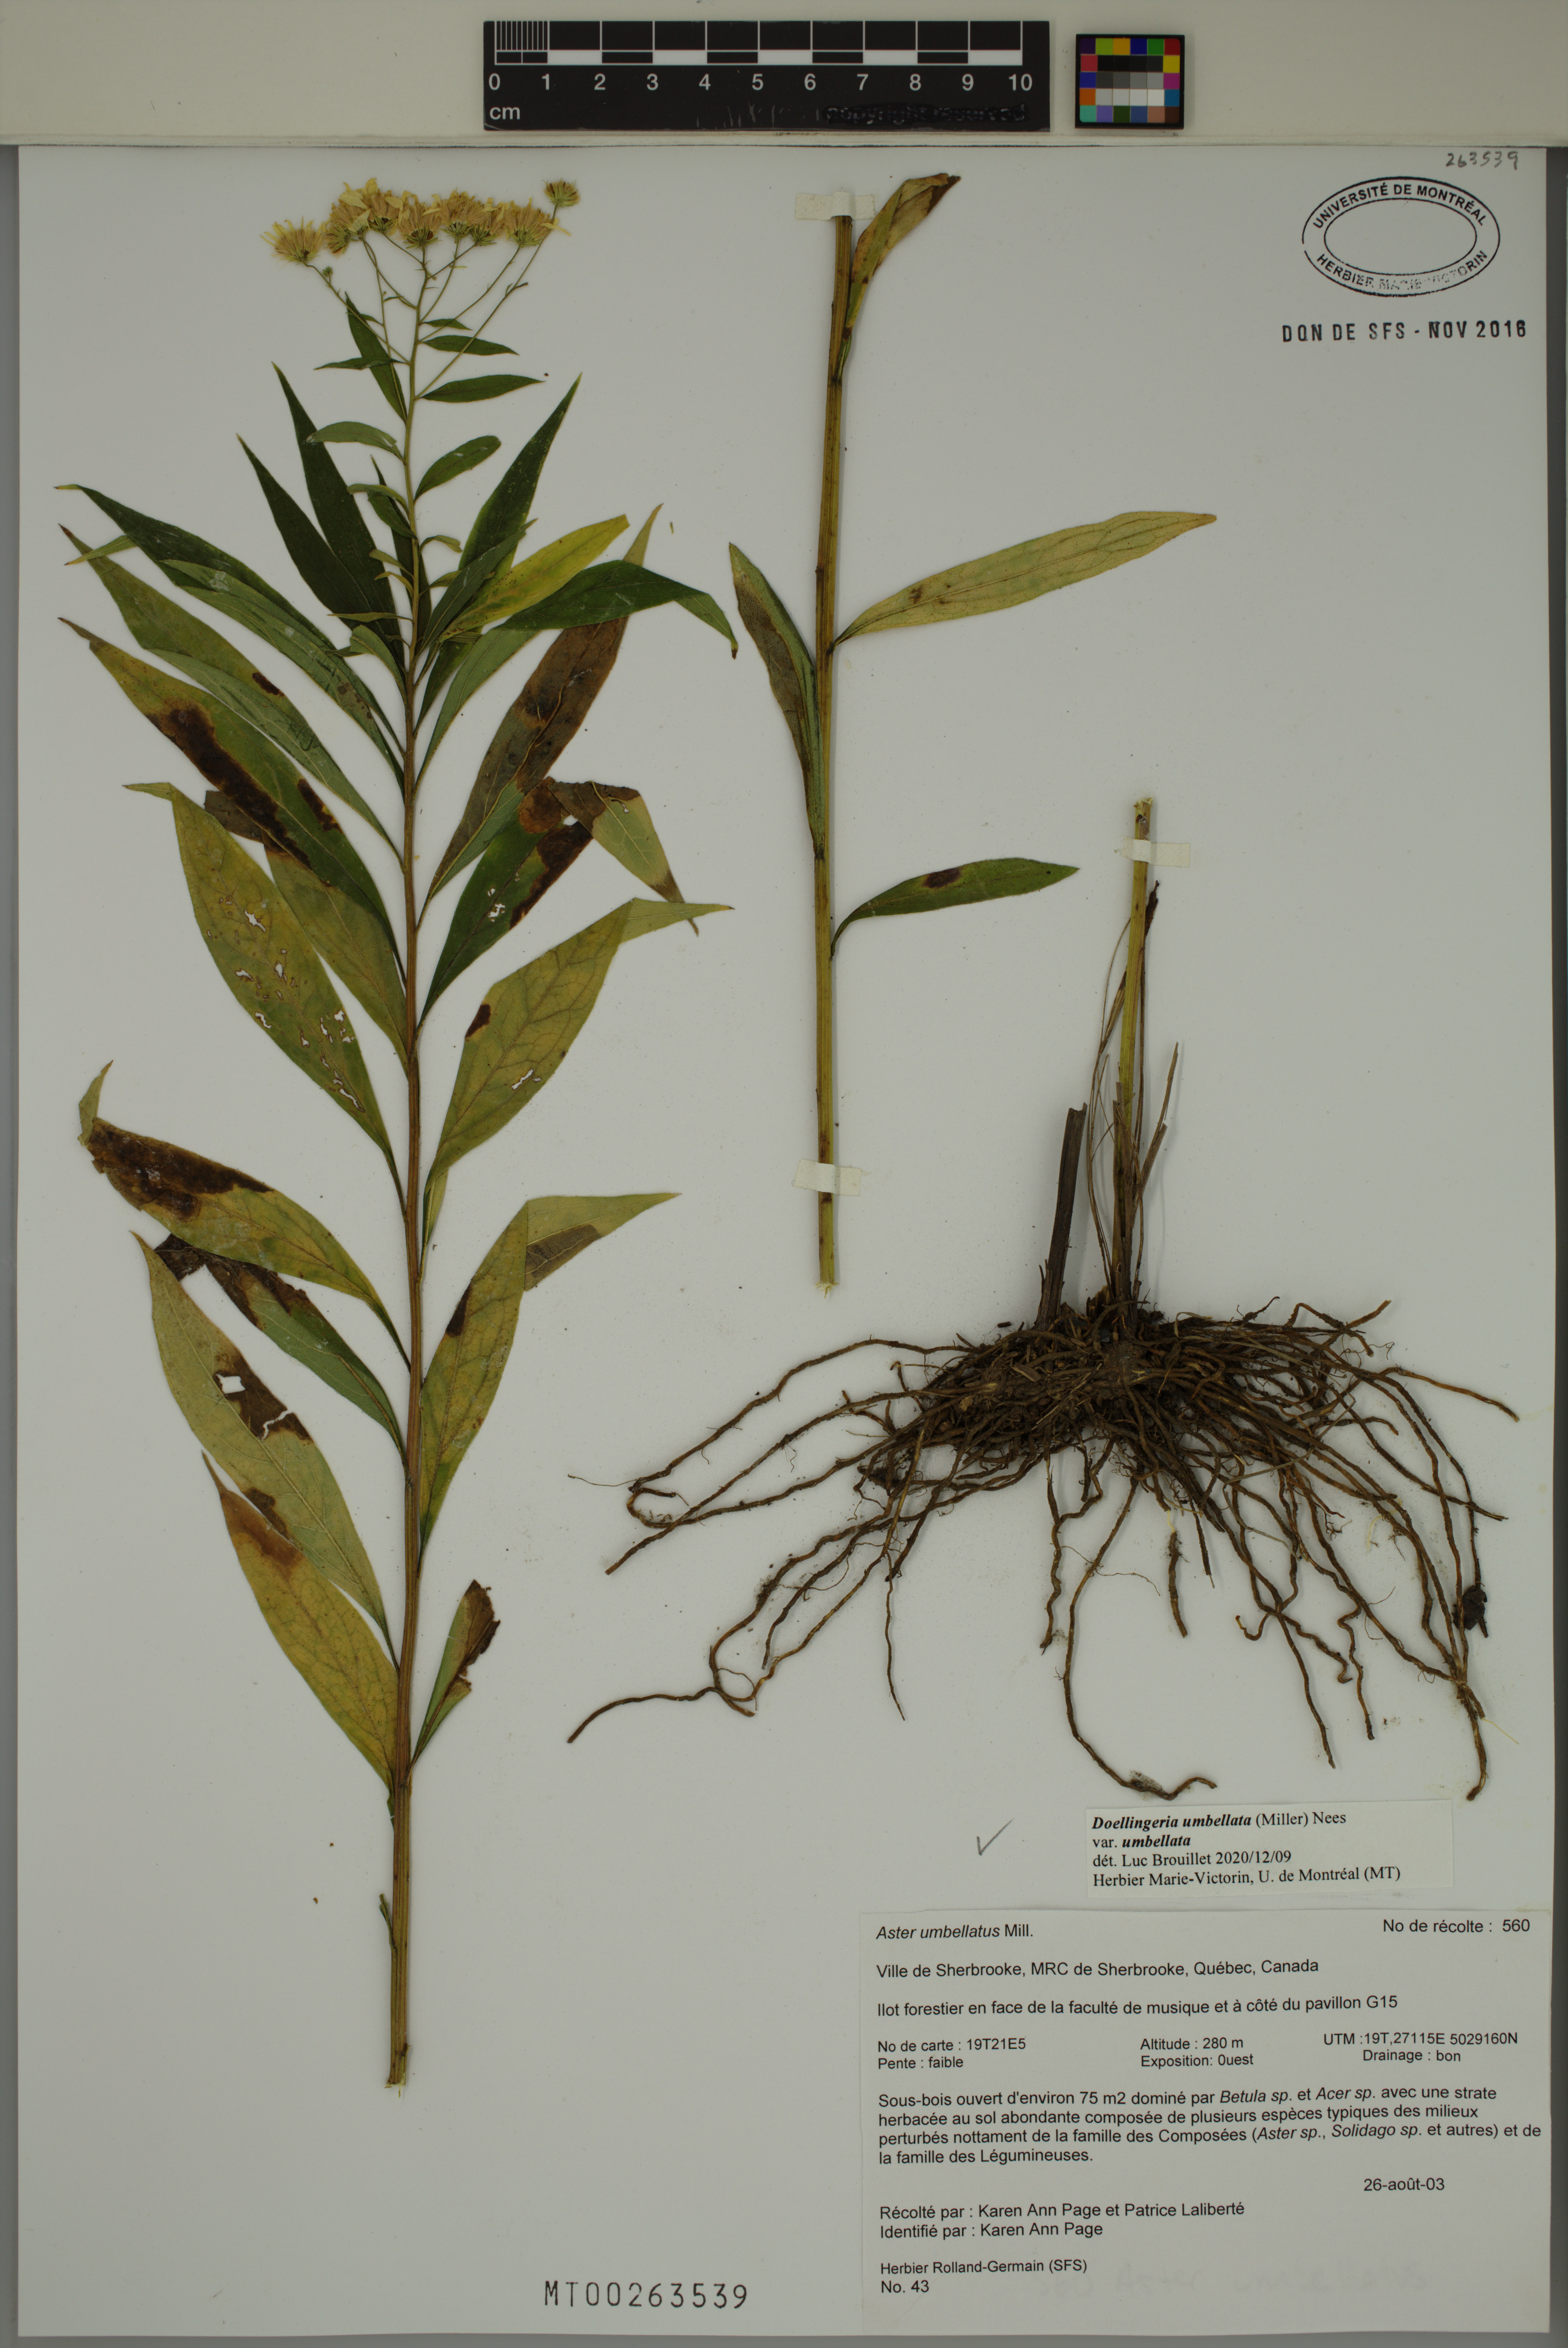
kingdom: Plantae
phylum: Tracheophyta
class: Magnoliopsida
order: Asterales
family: Asteraceae
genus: Doellingeria
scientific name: Doellingeria umbellata
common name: Flat-top white aster
